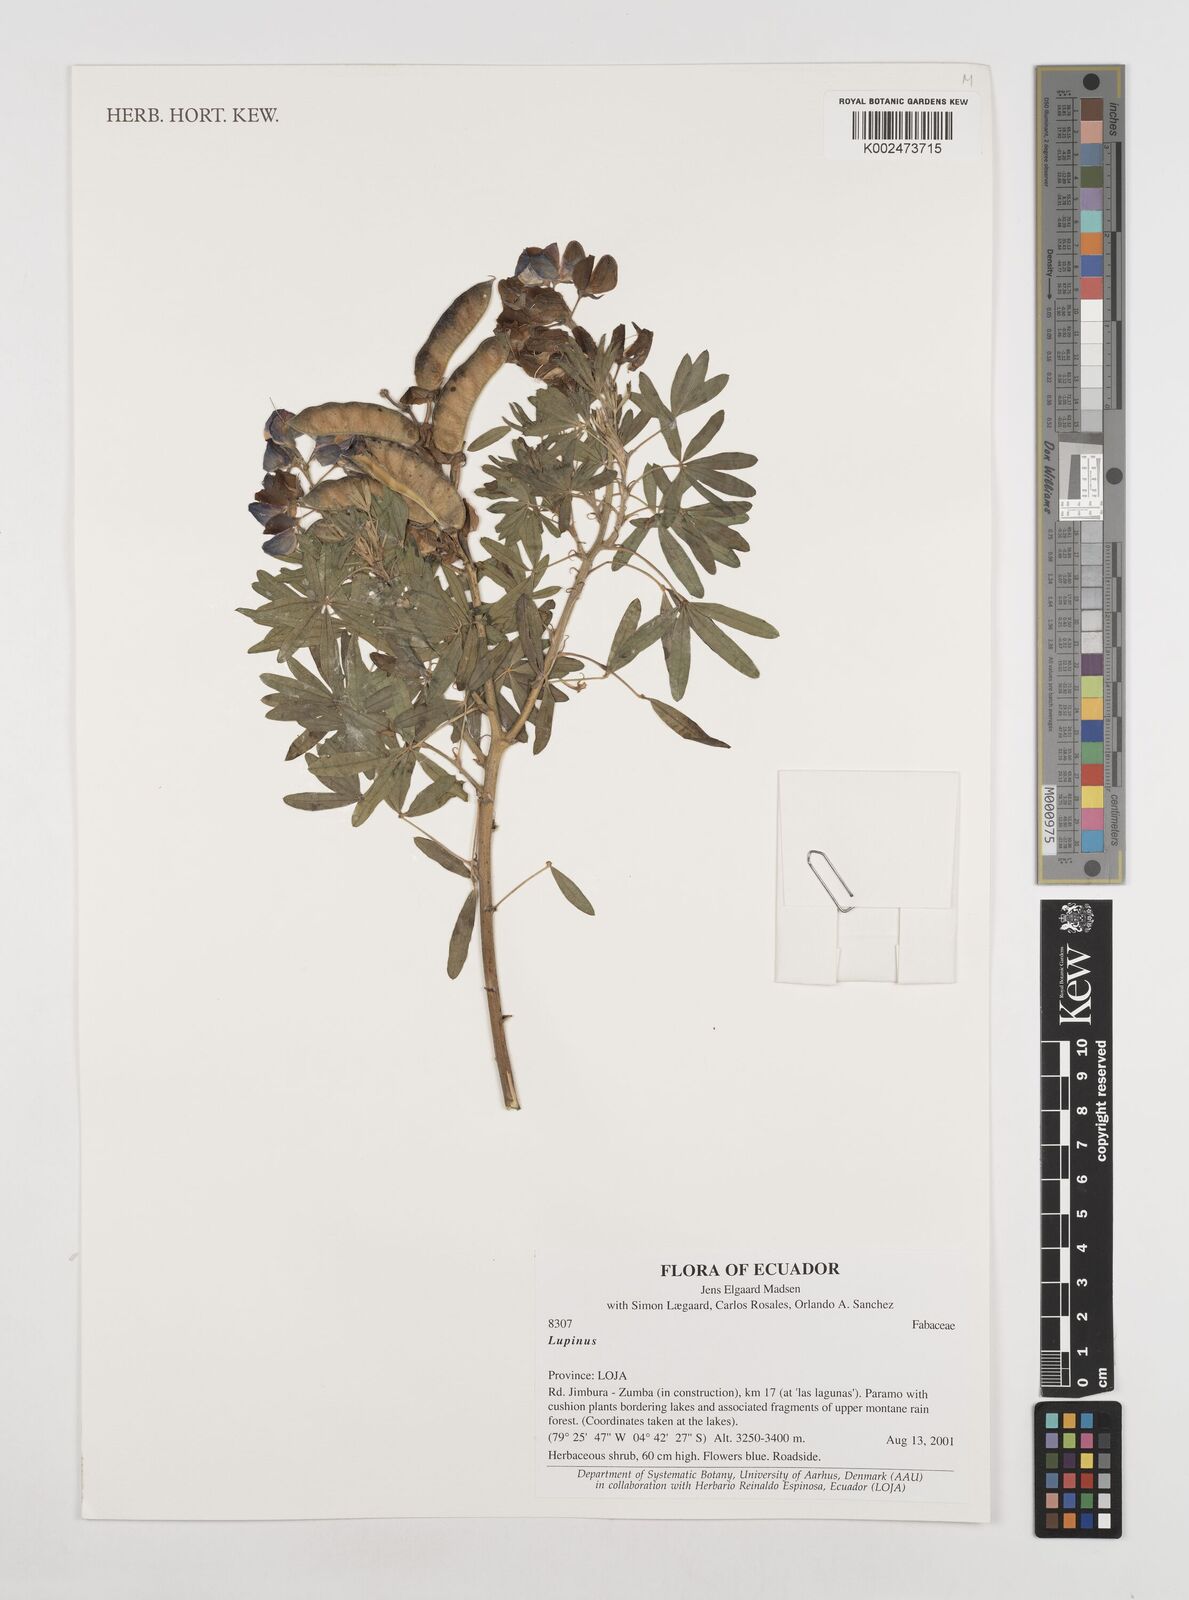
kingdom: Plantae
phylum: Tracheophyta
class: Magnoliopsida
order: Fabales
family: Fabaceae
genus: Lupinus
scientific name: Lupinus
